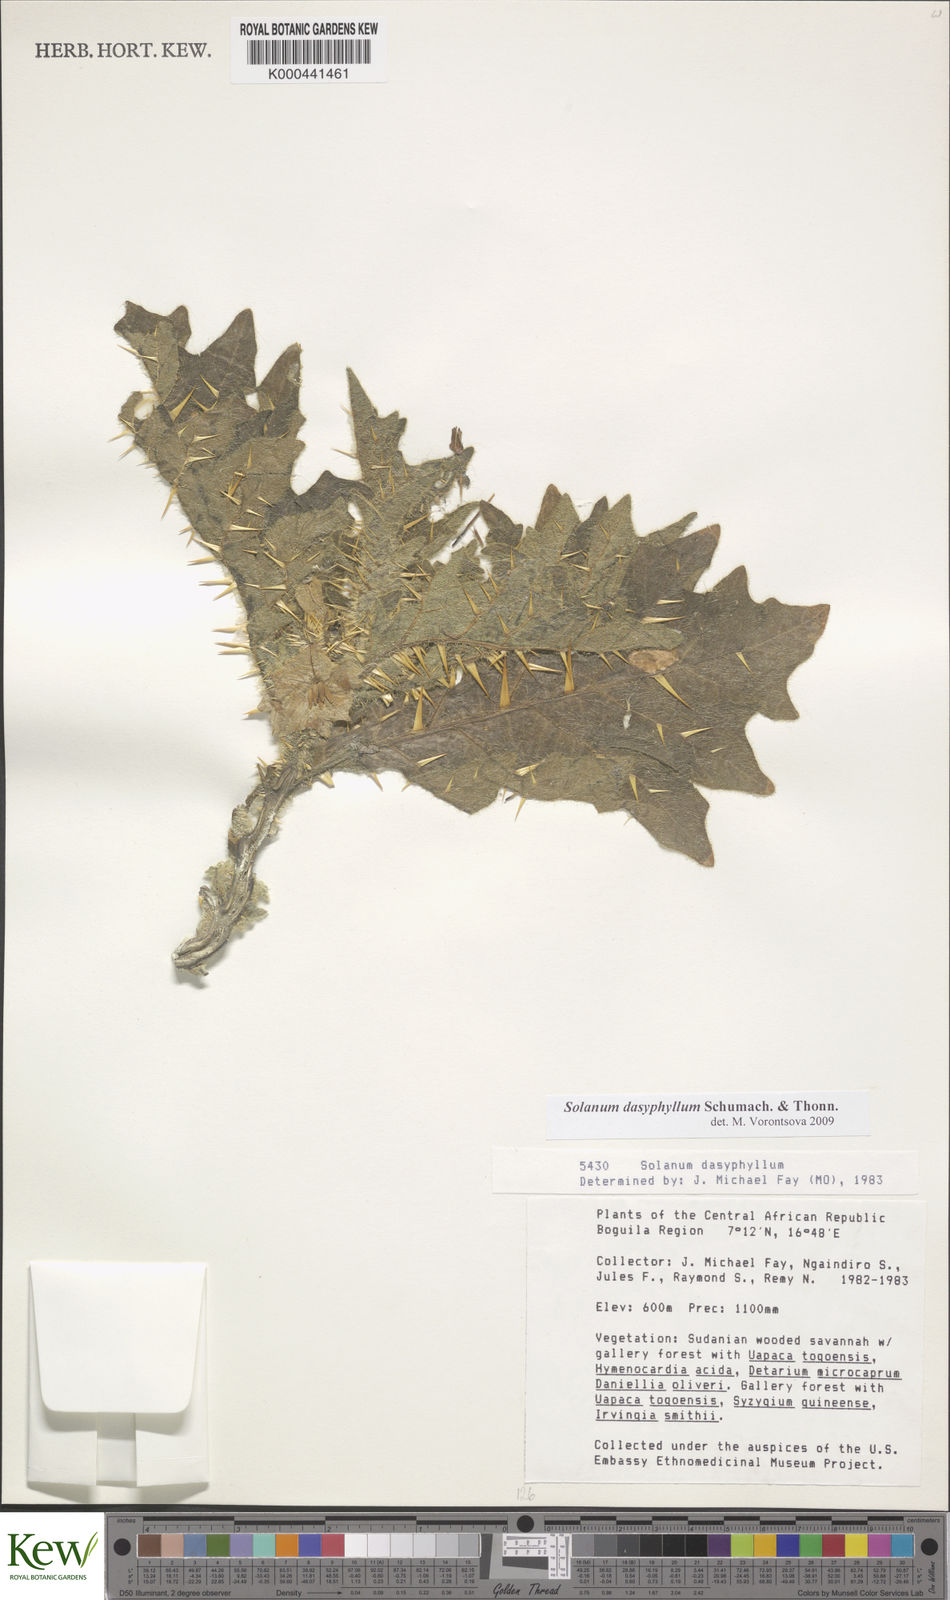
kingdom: Plantae
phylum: Tracheophyta
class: Magnoliopsida
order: Solanales
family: Solanaceae
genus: Solanum
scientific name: Solanum dasyphyllum
